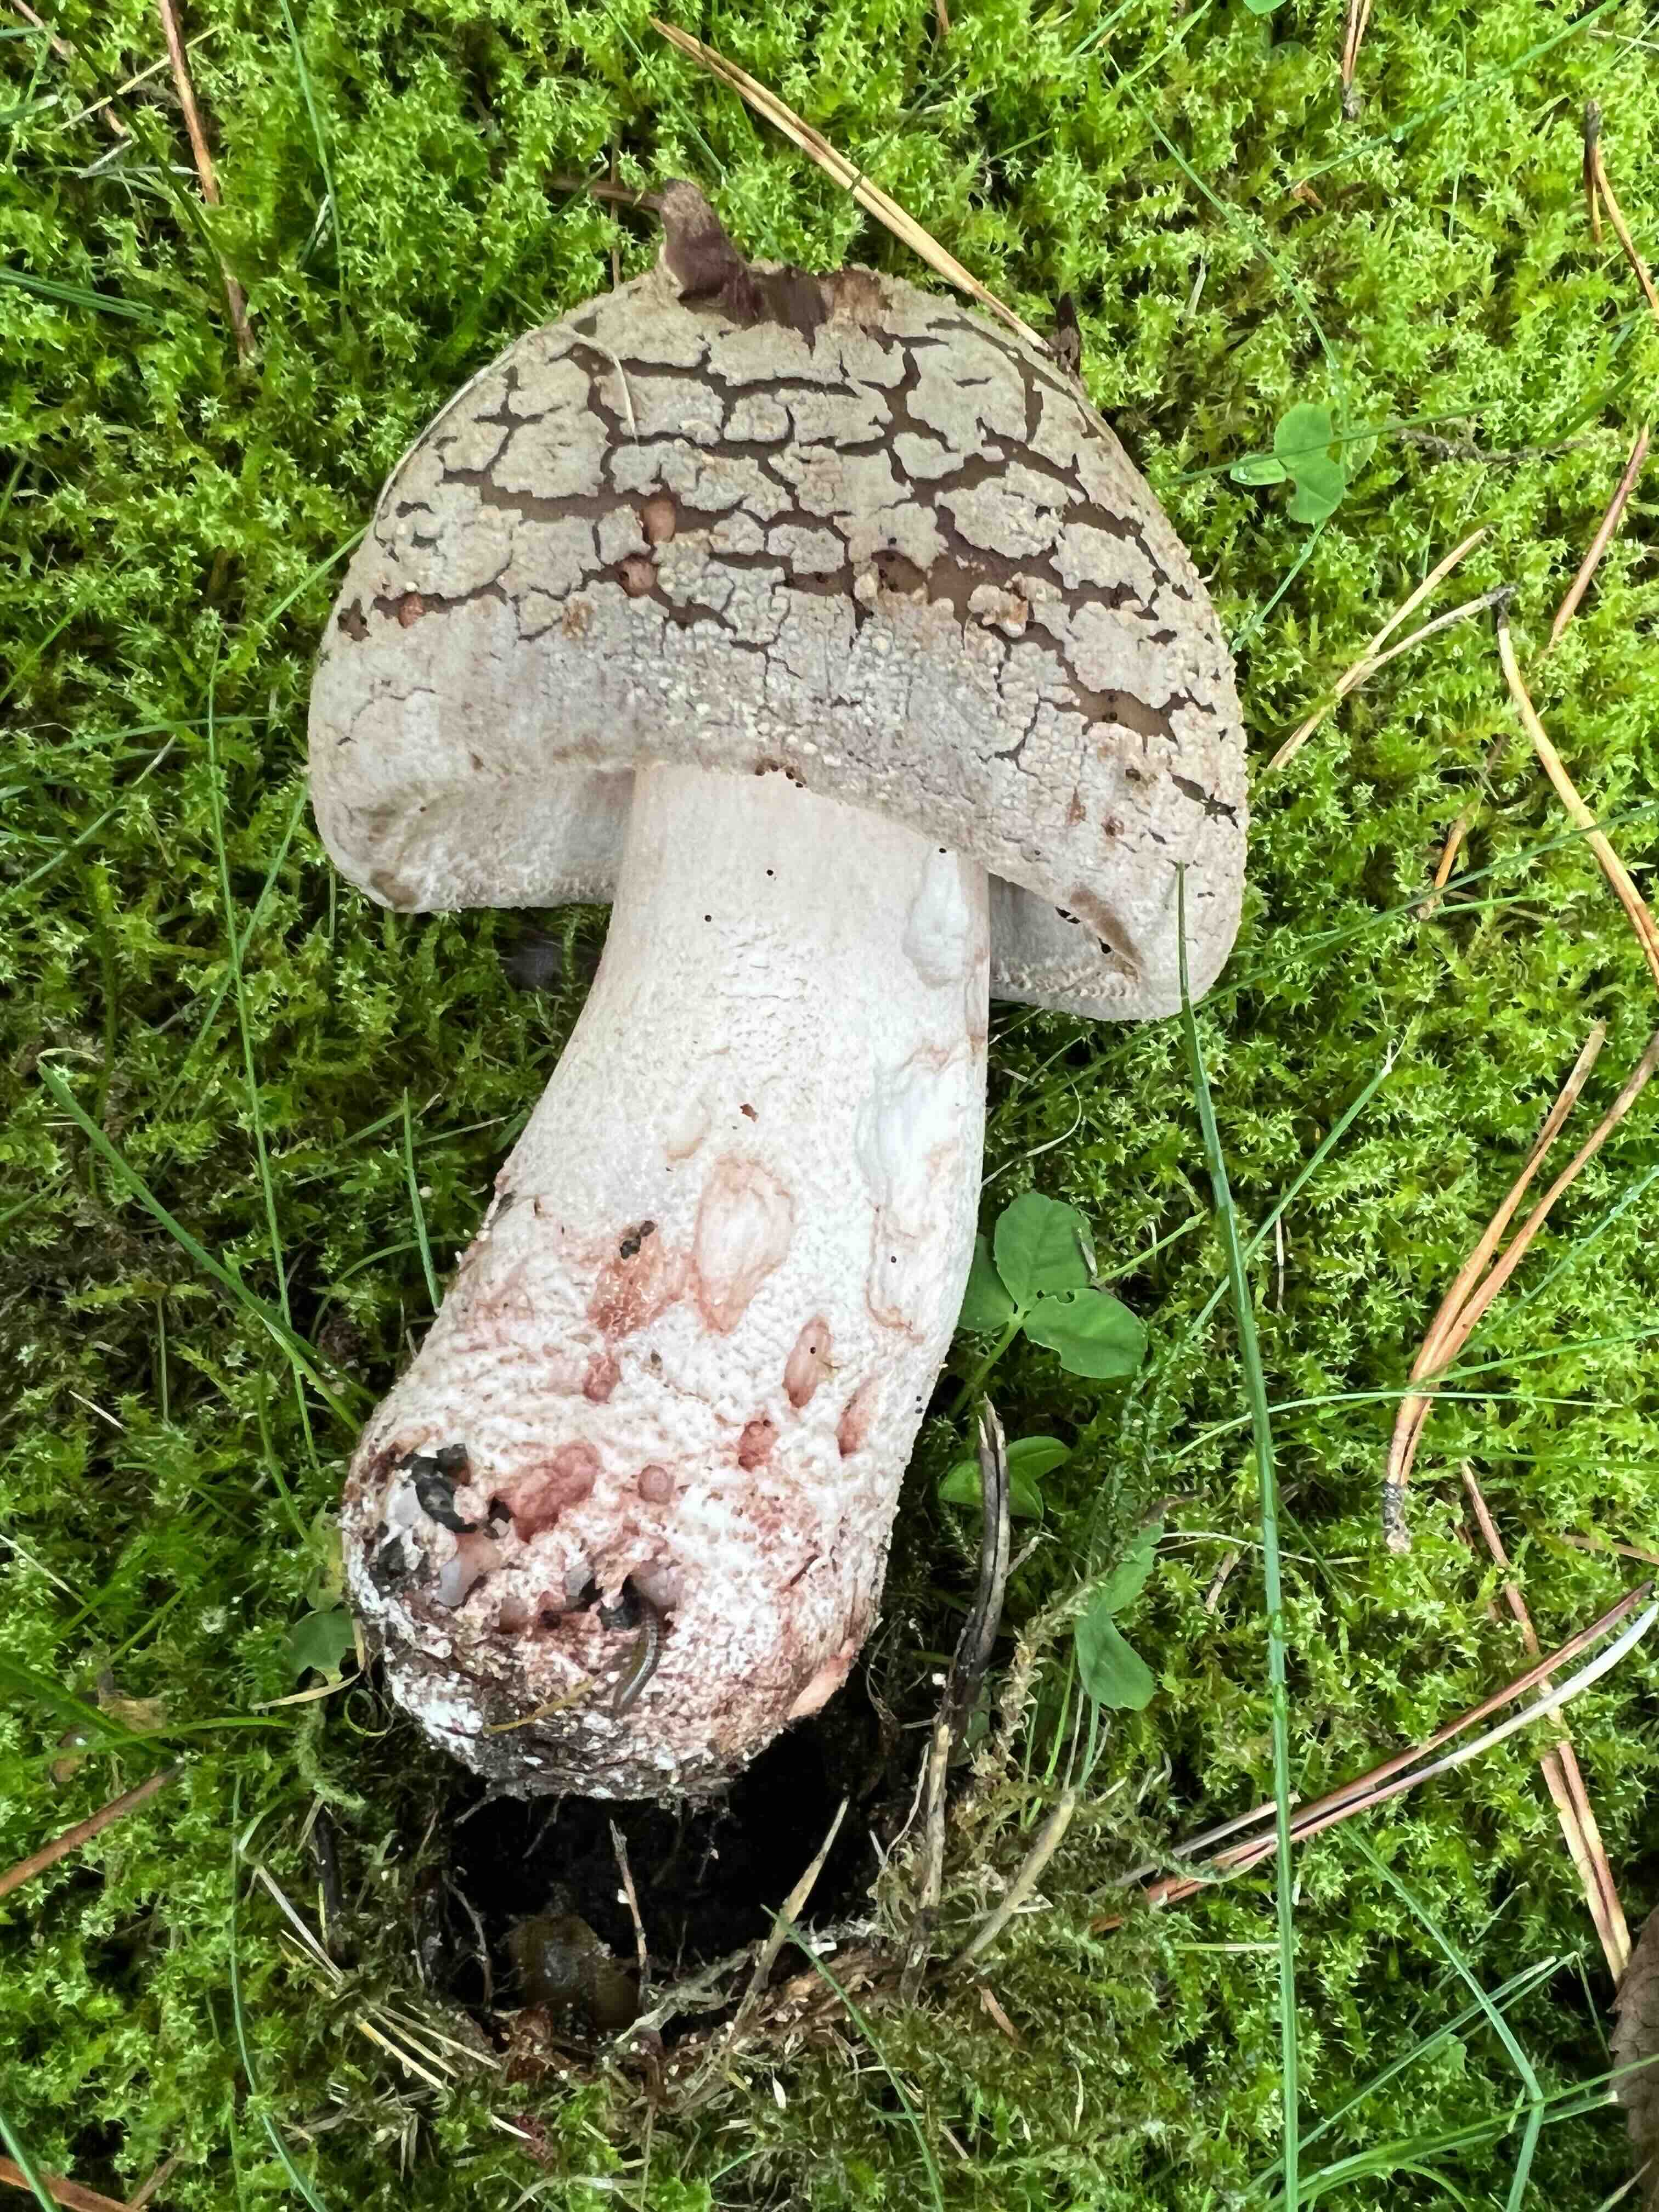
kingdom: Fungi
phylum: Basidiomycota
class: Agaricomycetes
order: Agaricales
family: Amanitaceae
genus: Amanita
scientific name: Amanita rubescens
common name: rødmende fluesvamp
